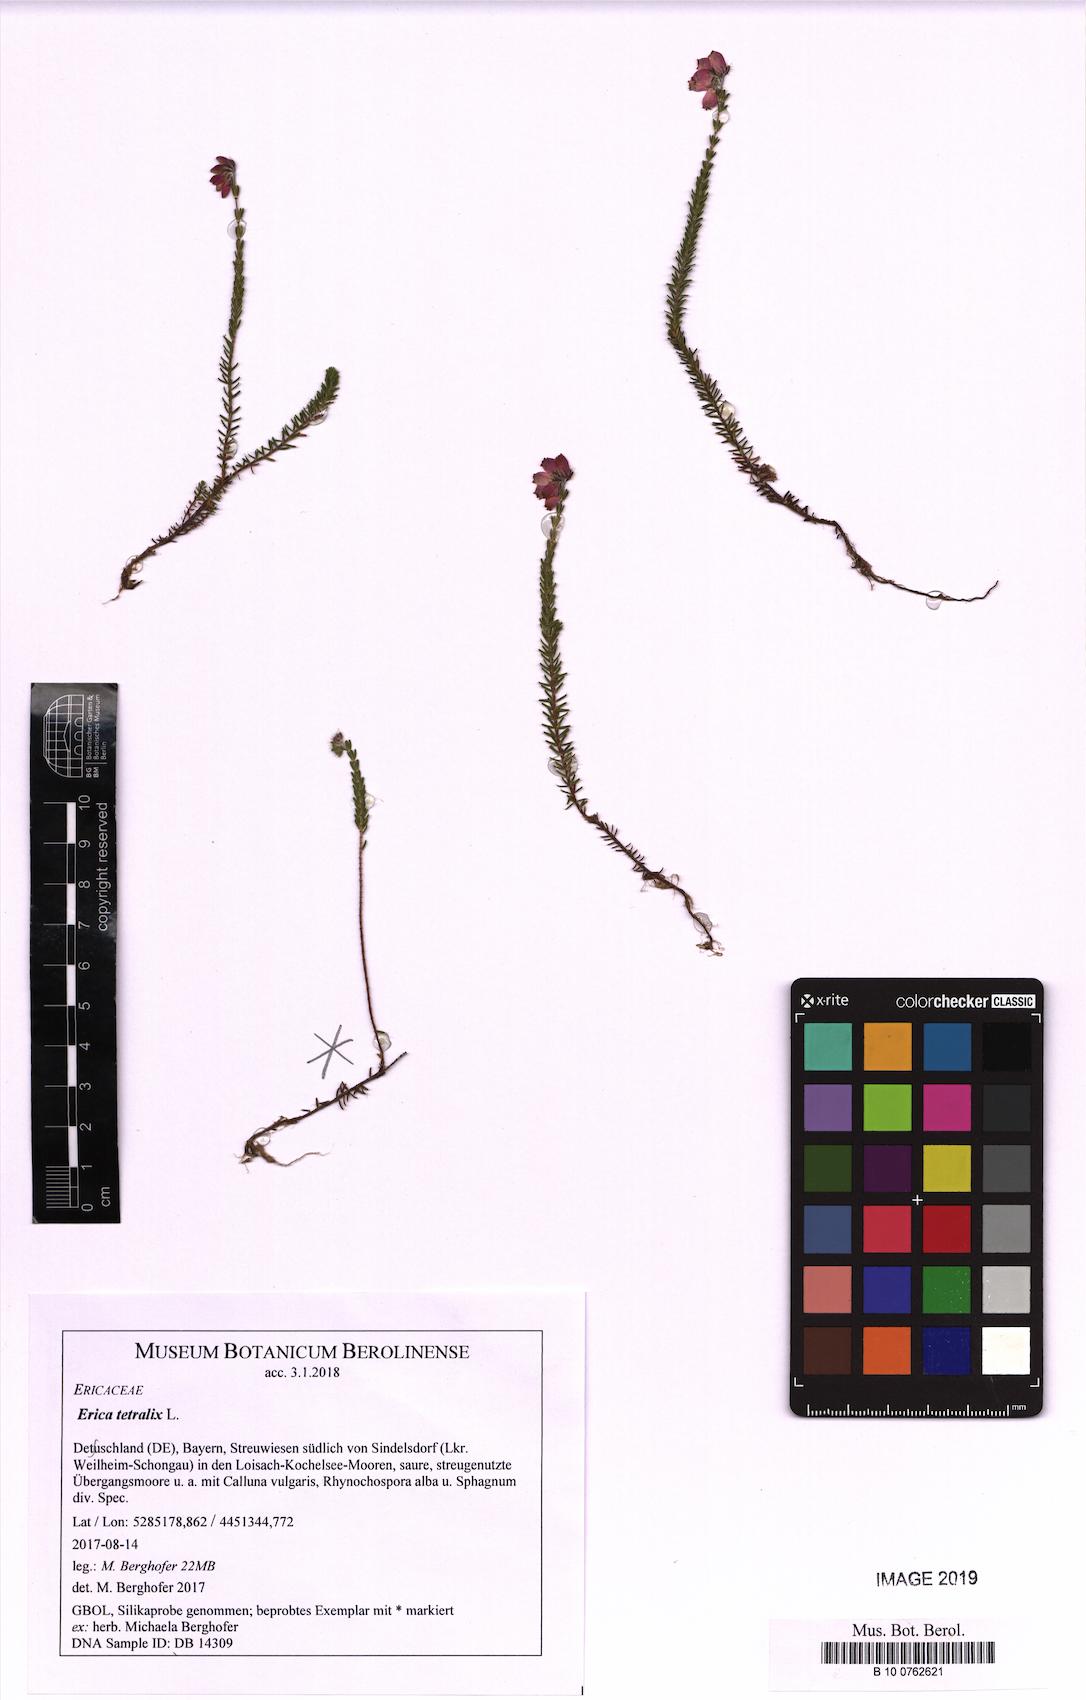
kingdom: Plantae
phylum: Tracheophyta
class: Magnoliopsida
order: Ericales
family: Ericaceae
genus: Erica
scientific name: Erica tetralix
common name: Cross-leaved heath
